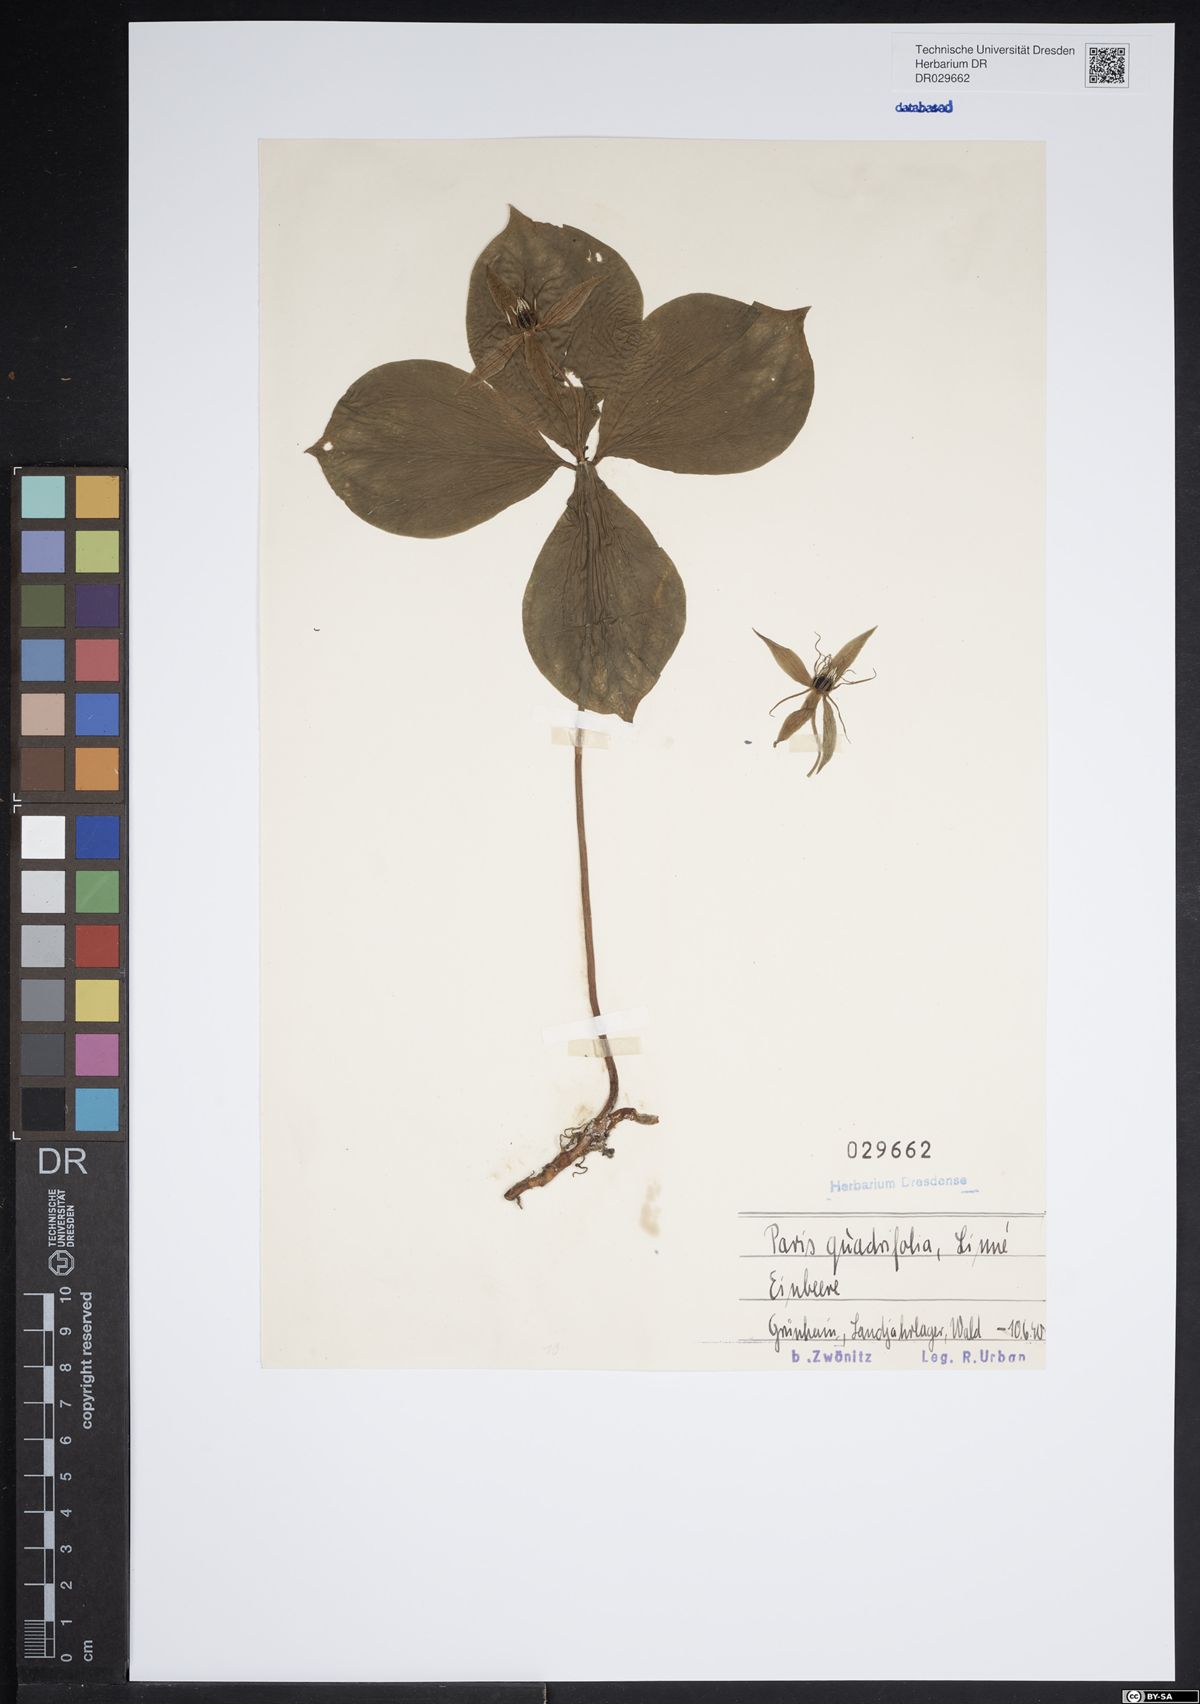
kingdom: Plantae
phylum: Tracheophyta
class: Liliopsida
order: Liliales
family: Melanthiaceae
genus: Paris
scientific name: Paris quadrifolia
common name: Herb-paris
